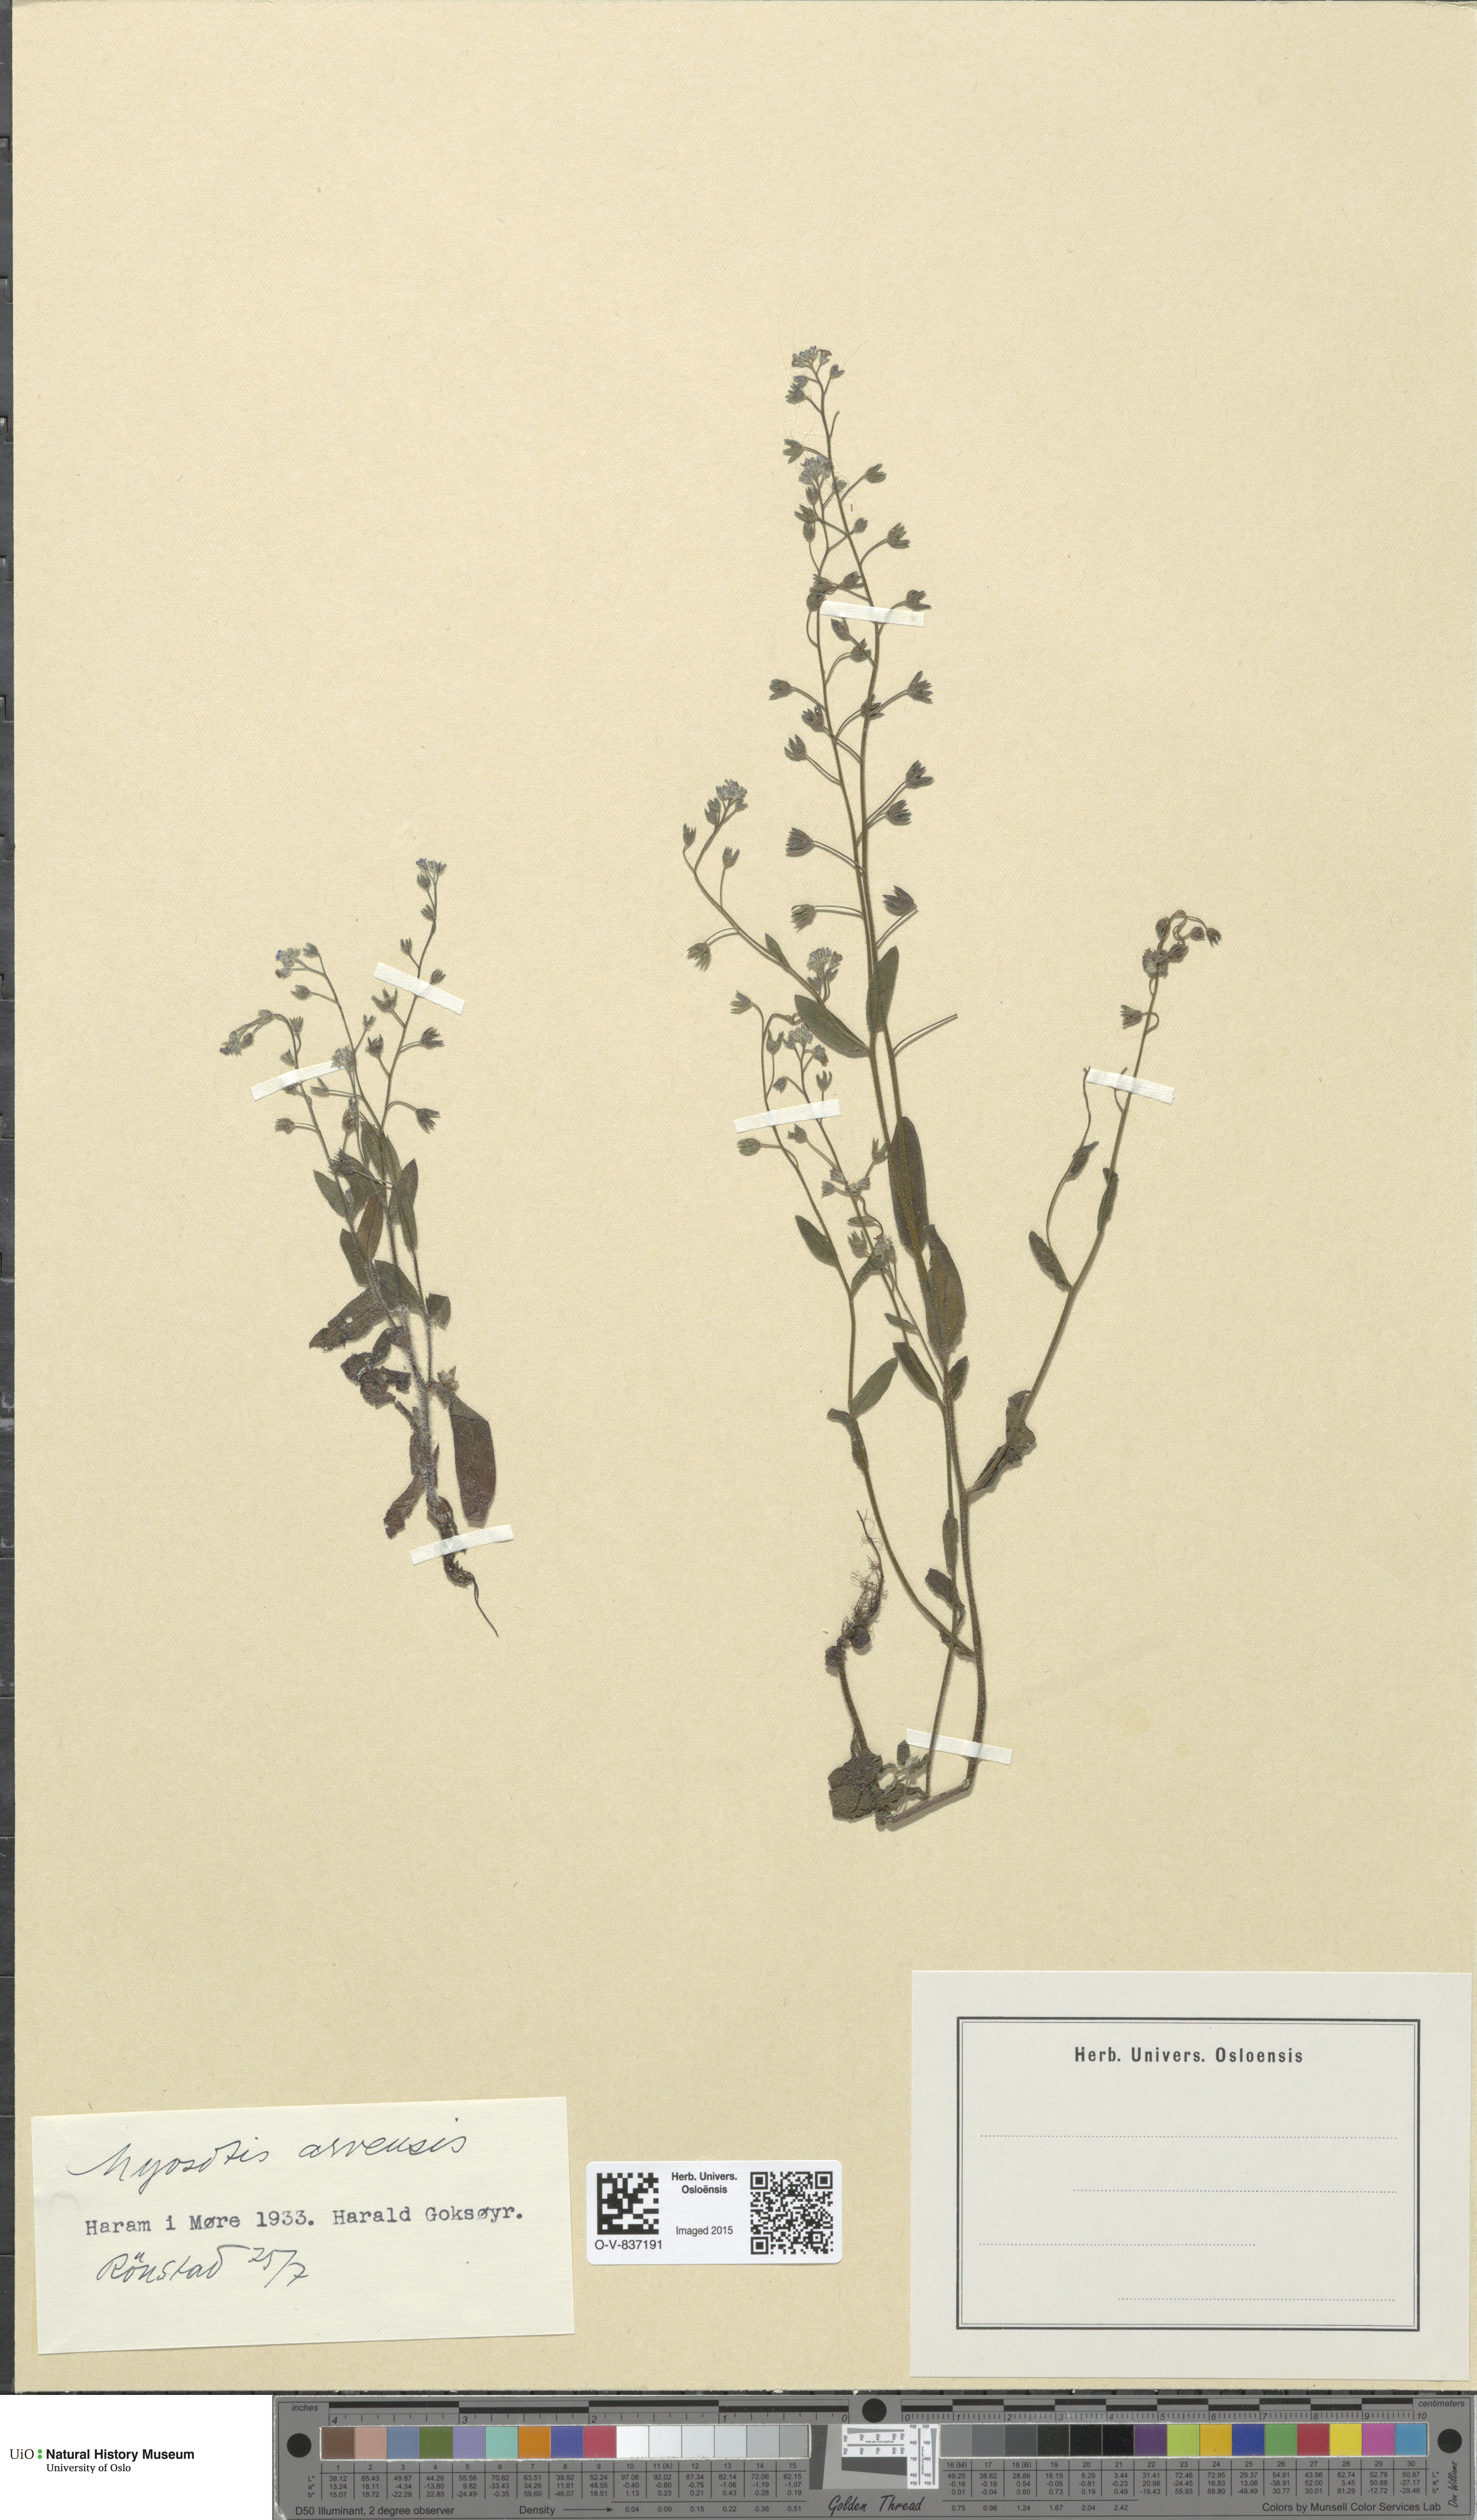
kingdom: Plantae
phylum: Tracheophyta
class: Magnoliopsida
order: Boraginales
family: Boraginaceae
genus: Myosotis
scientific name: Myosotis arvensis
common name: Field forget-me-not
